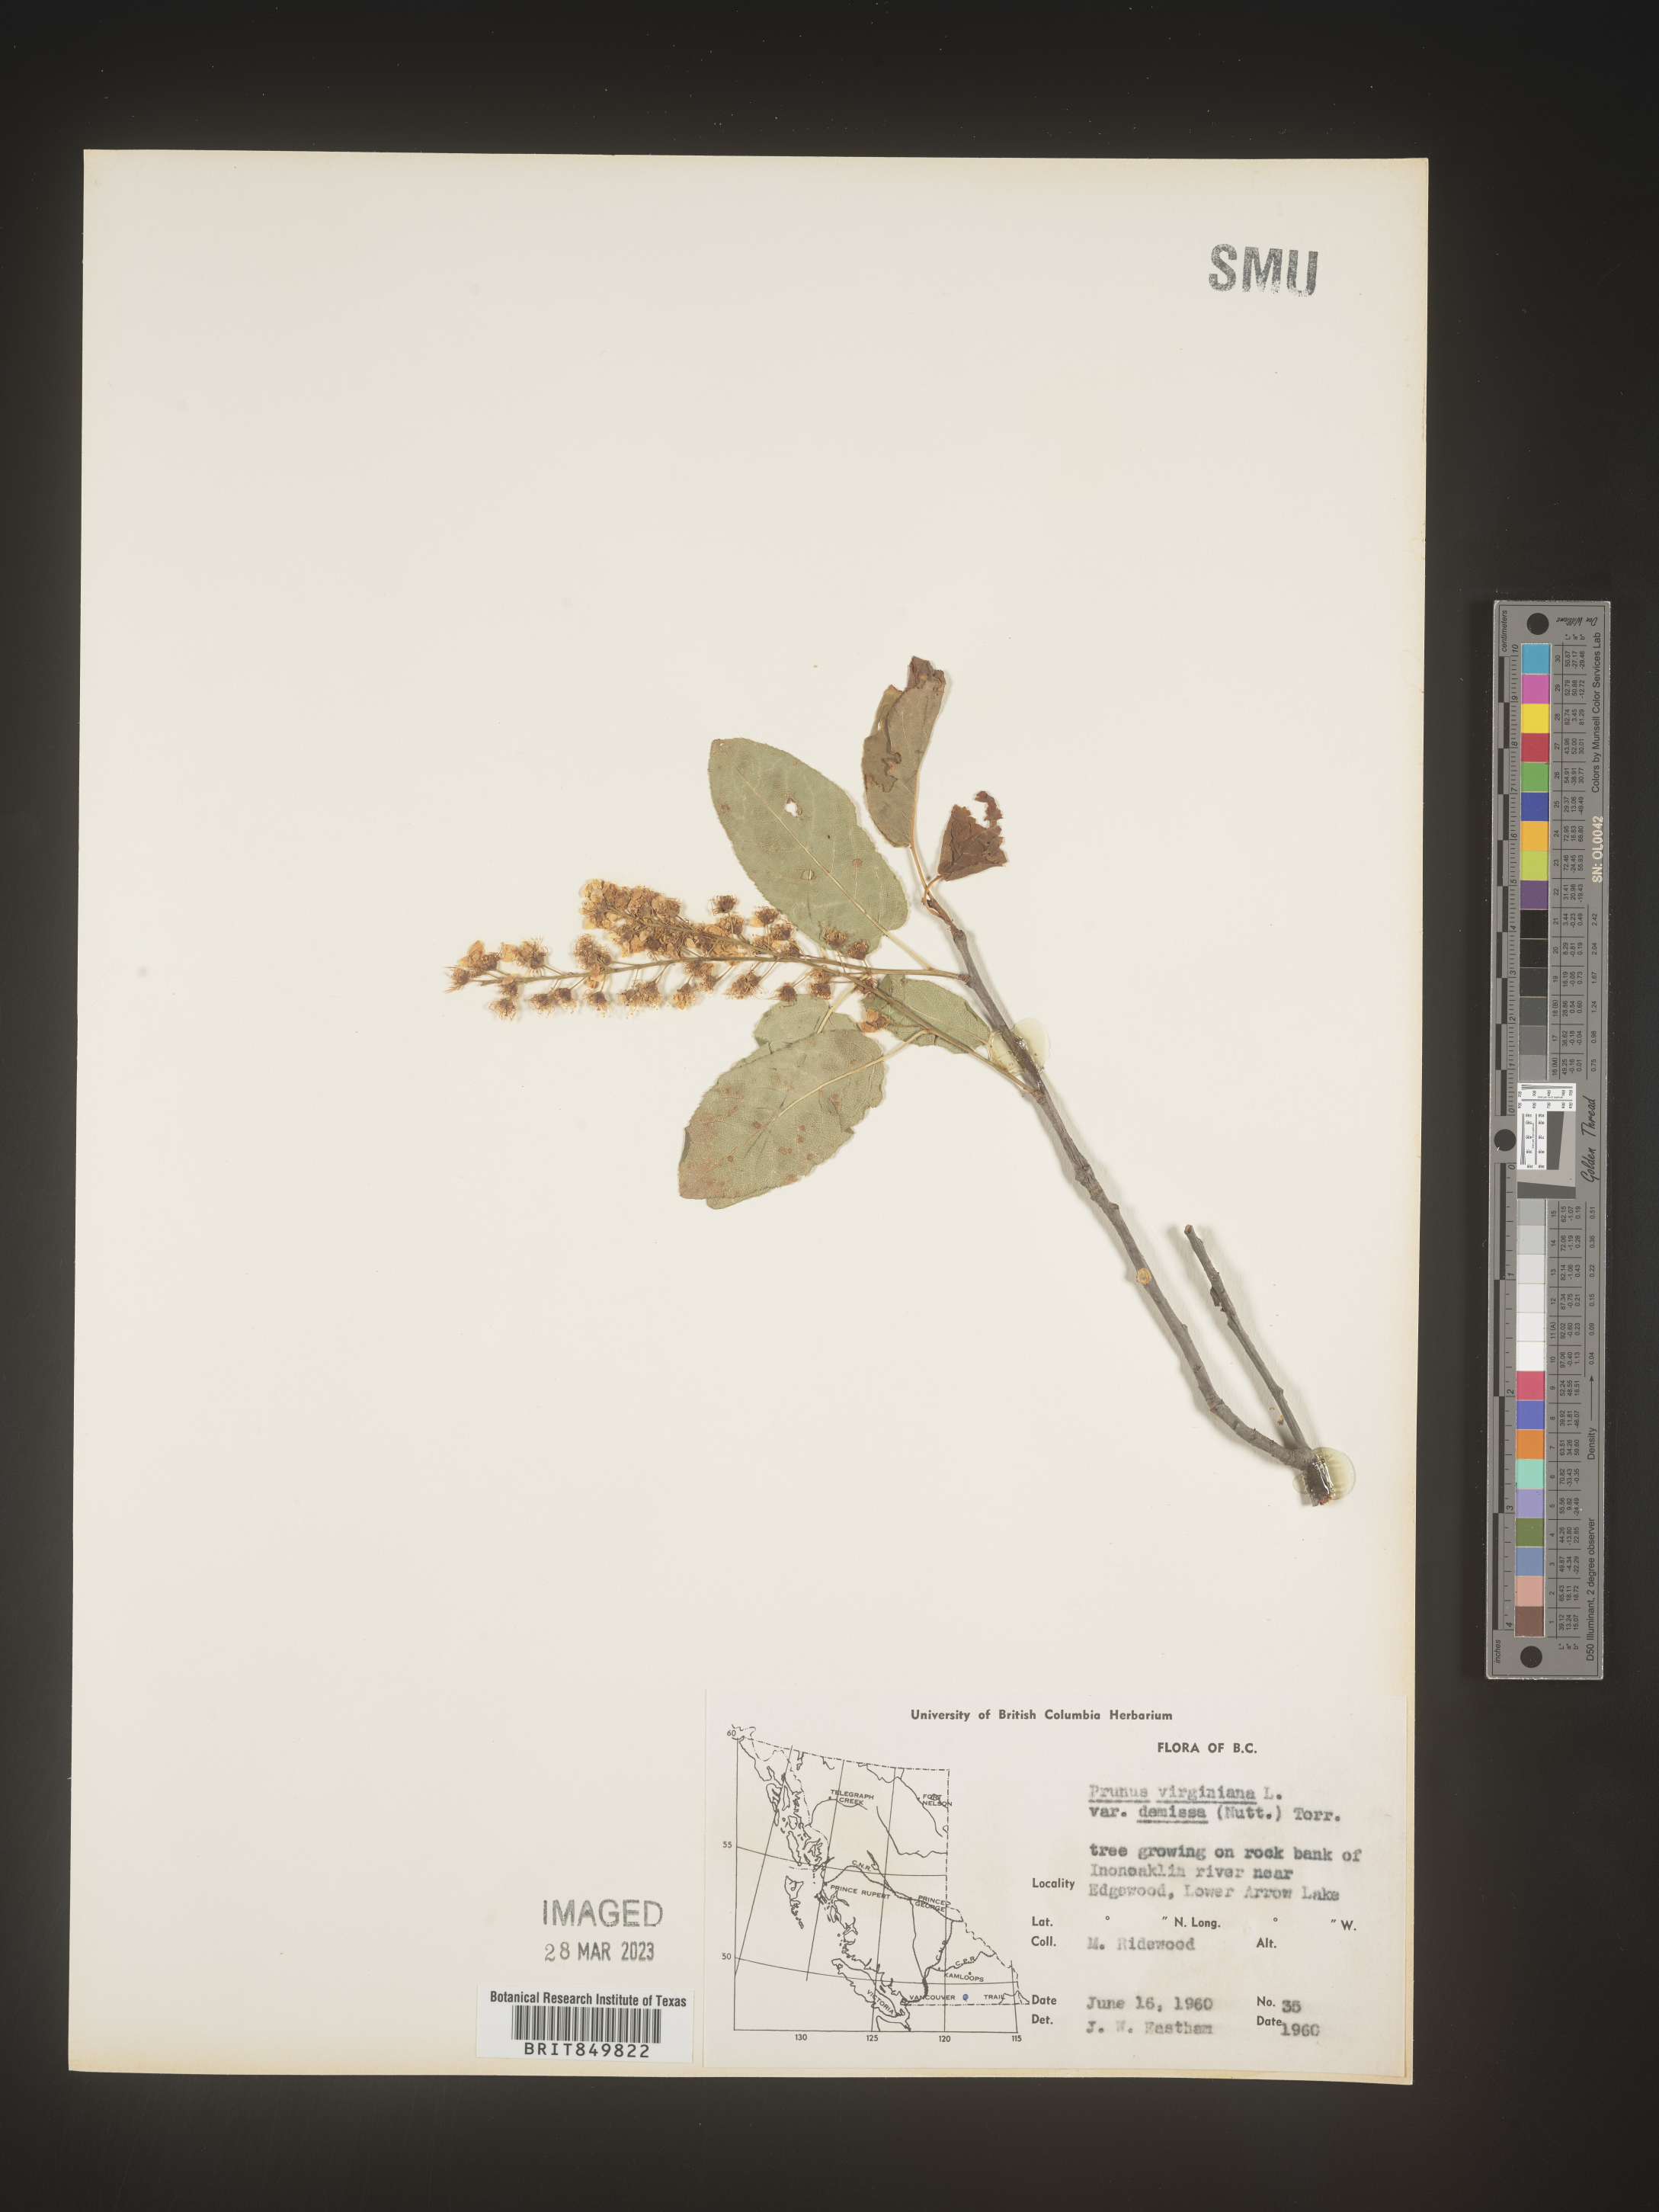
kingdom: Plantae
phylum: Tracheophyta
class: Magnoliopsida
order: Rosales
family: Rosaceae
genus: Prunus
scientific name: Prunus virginiana
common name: Chokecherry
